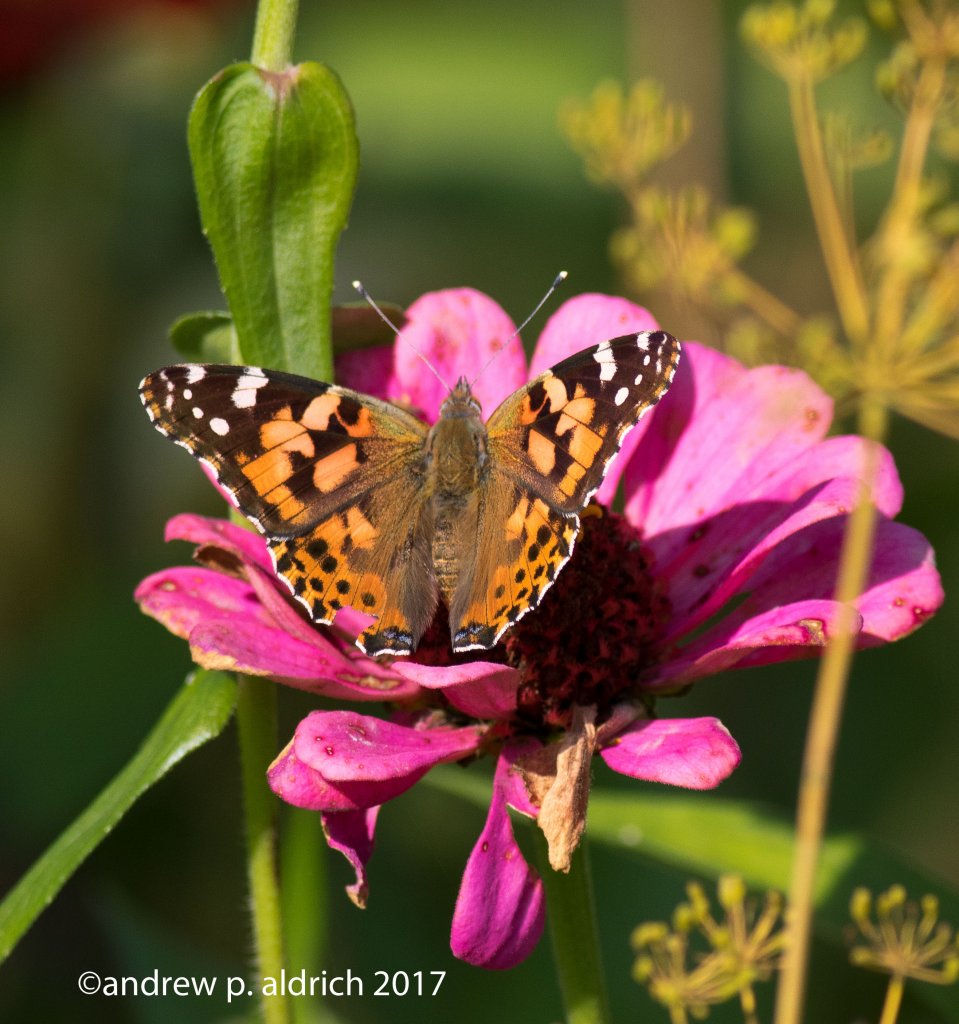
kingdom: Animalia
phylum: Arthropoda
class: Insecta
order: Lepidoptera
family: Nymphalidae
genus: Vanessa
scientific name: Vanessa cardui
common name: Painted Lady
